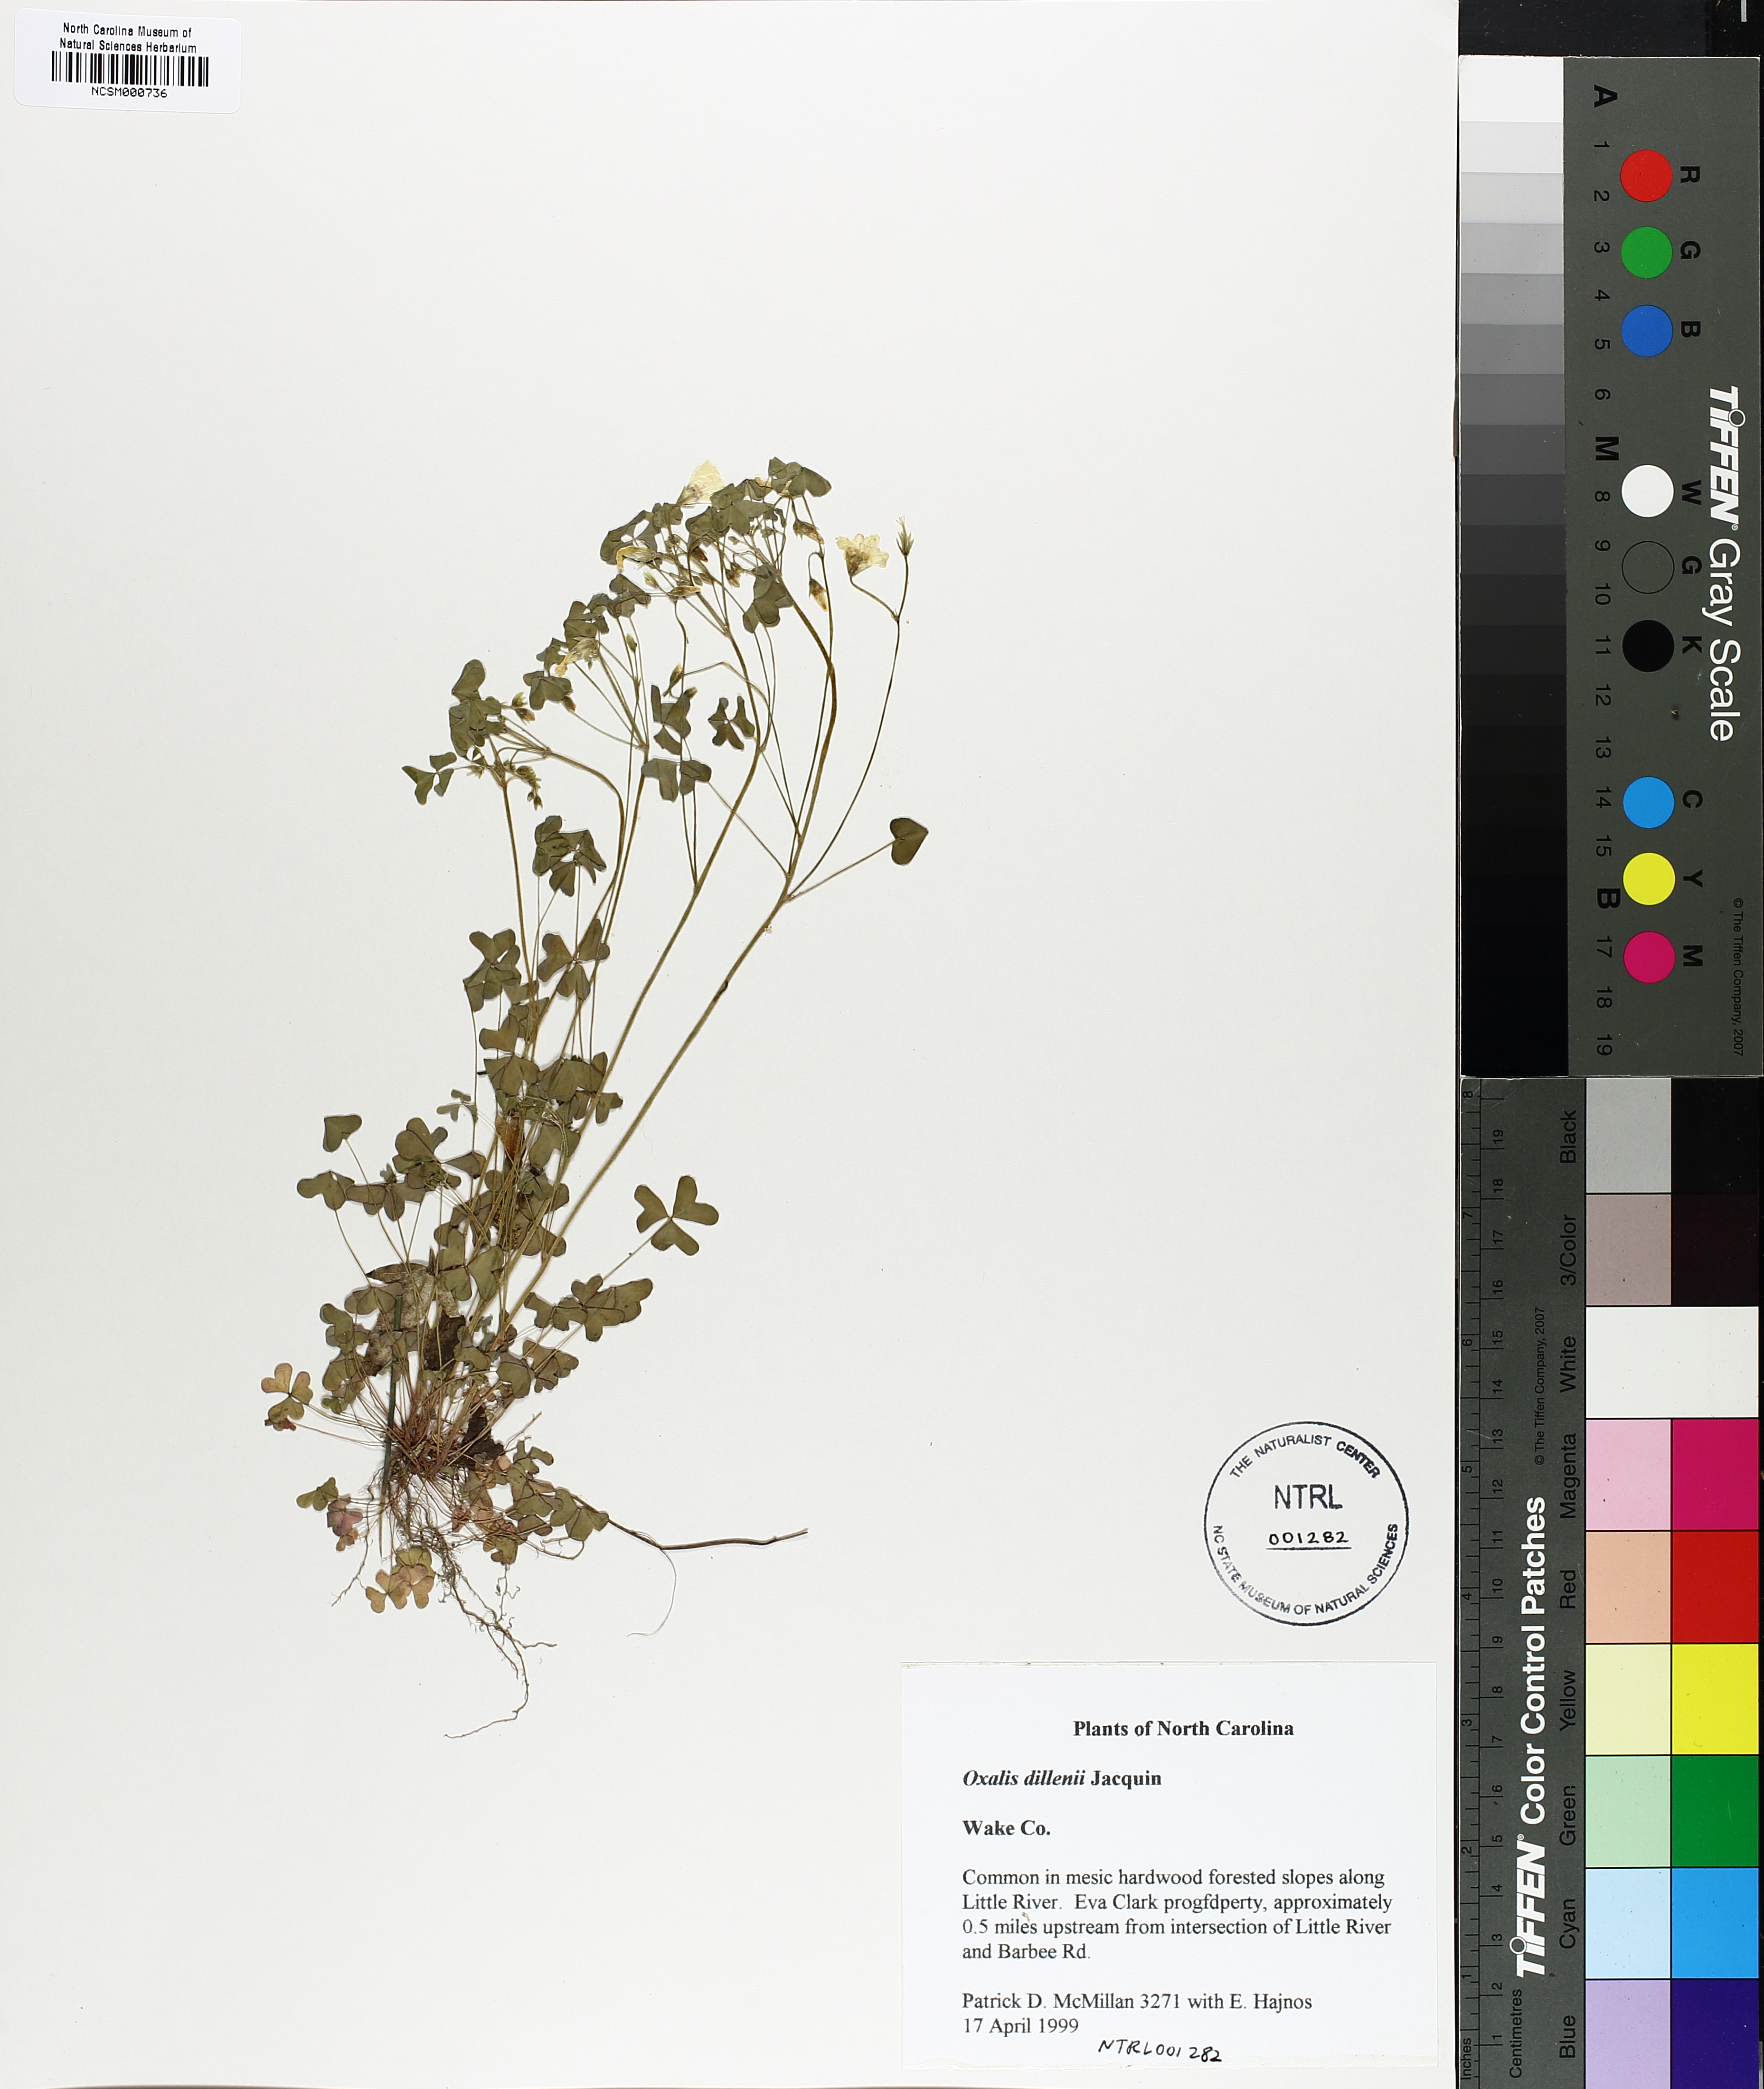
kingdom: Plantae
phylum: Tracheophyta
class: Magnoliopsida
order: Oxalidales
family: Oxalidaceae
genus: Oxalis
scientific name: Oxalis dillenii
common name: Sussex yellow-sorrel
